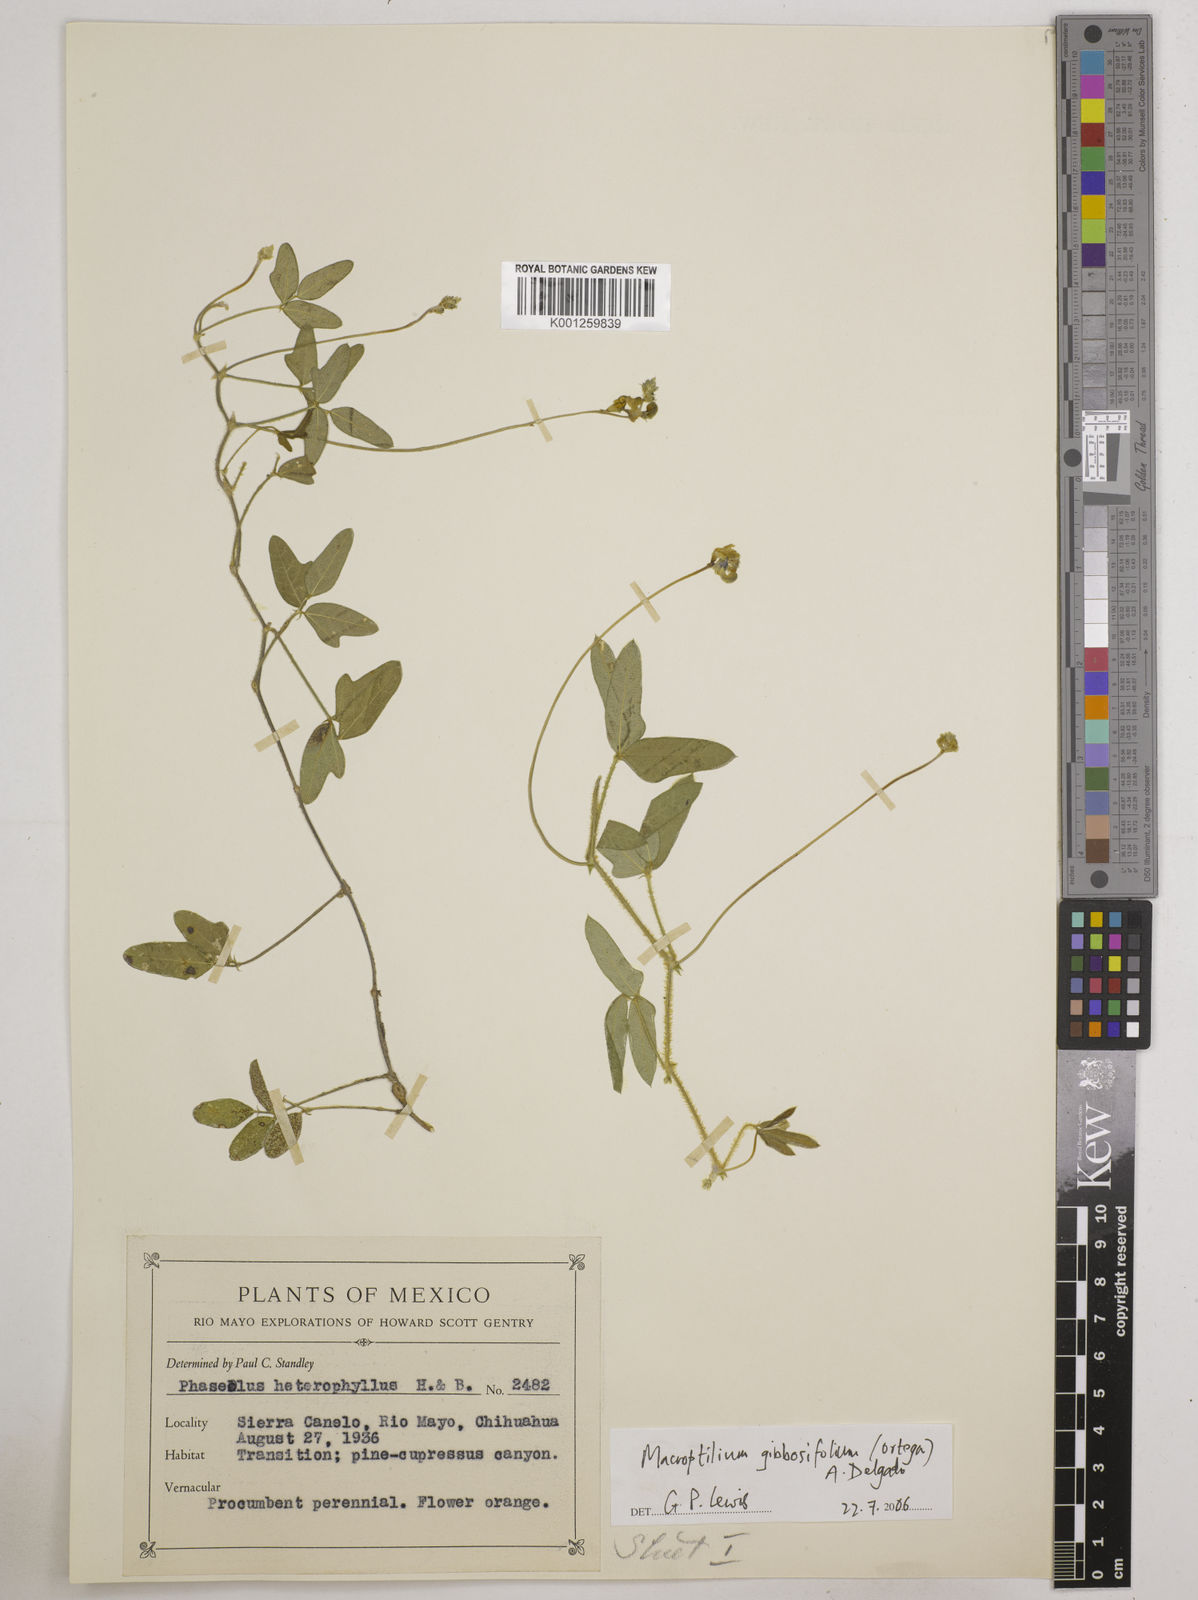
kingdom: Plantae
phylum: Tracheophyta
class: Magnoliopsida
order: Fabales
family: Fabaceae
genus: Macroptilium
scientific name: Macroptilium gibbosifolium
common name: Variableleaf bushbean
